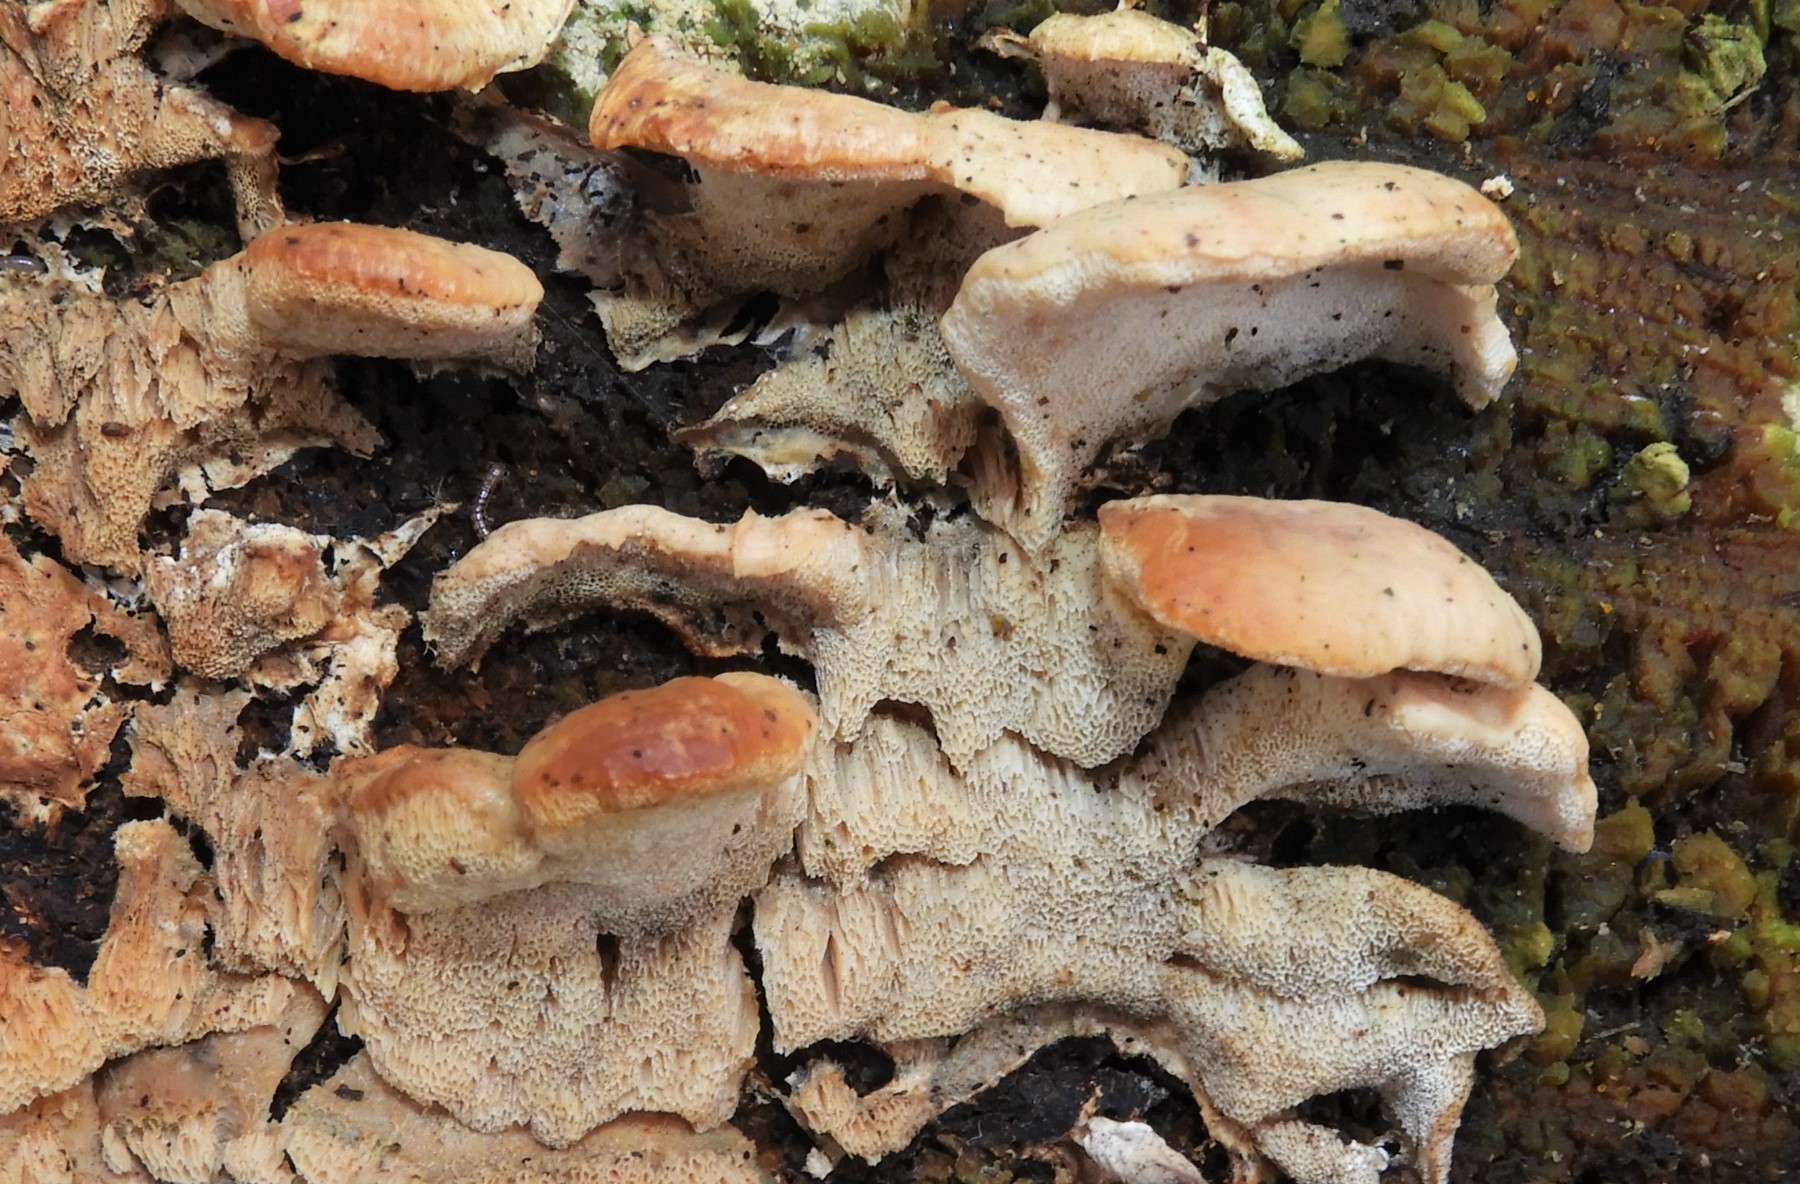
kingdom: Fungi
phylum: Basidiomycota
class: Agaricomycetes
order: Polyporales
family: Phanerochaetaceae
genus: Bjerkandera
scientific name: Bjerkandera fumosa
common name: grågul sodporesvamp
